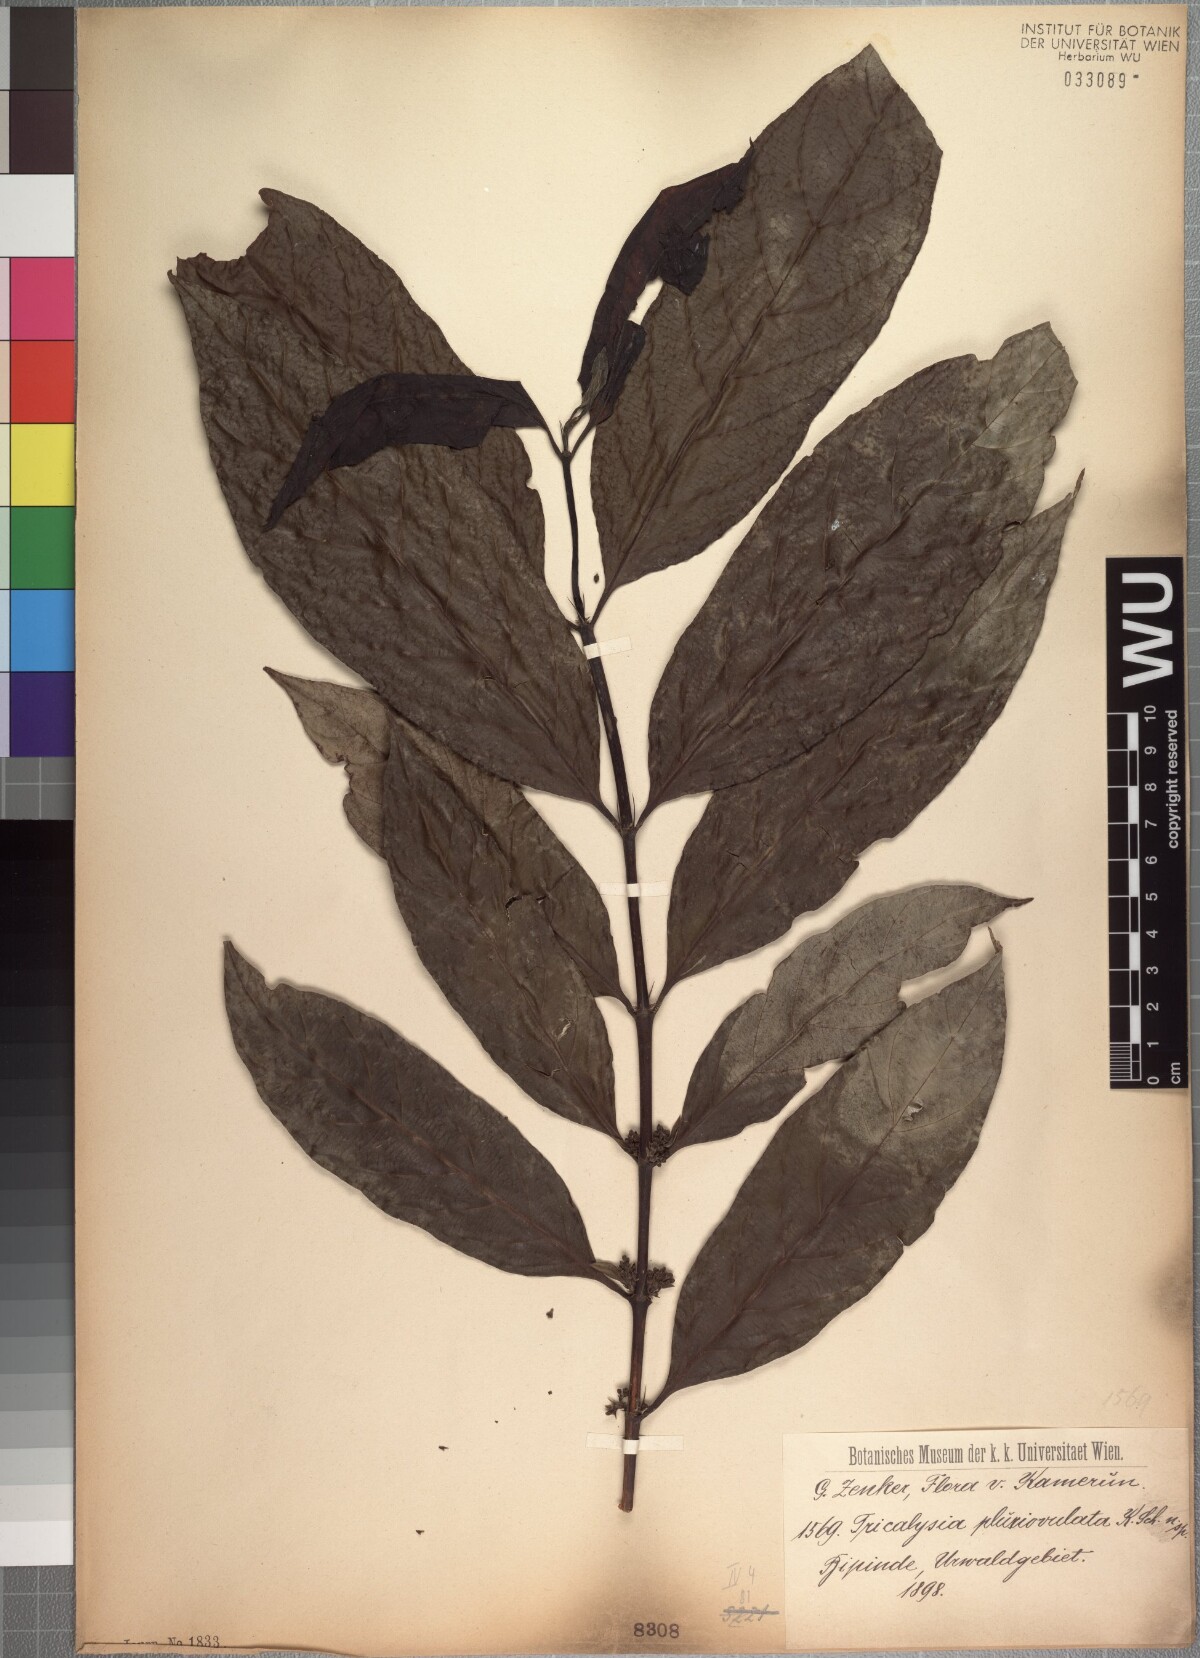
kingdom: Plantae
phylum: Tracheophyta
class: Magnoliopsida
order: Gentianales
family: Rubiaceae
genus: Empogona
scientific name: Empogona macrophylla
